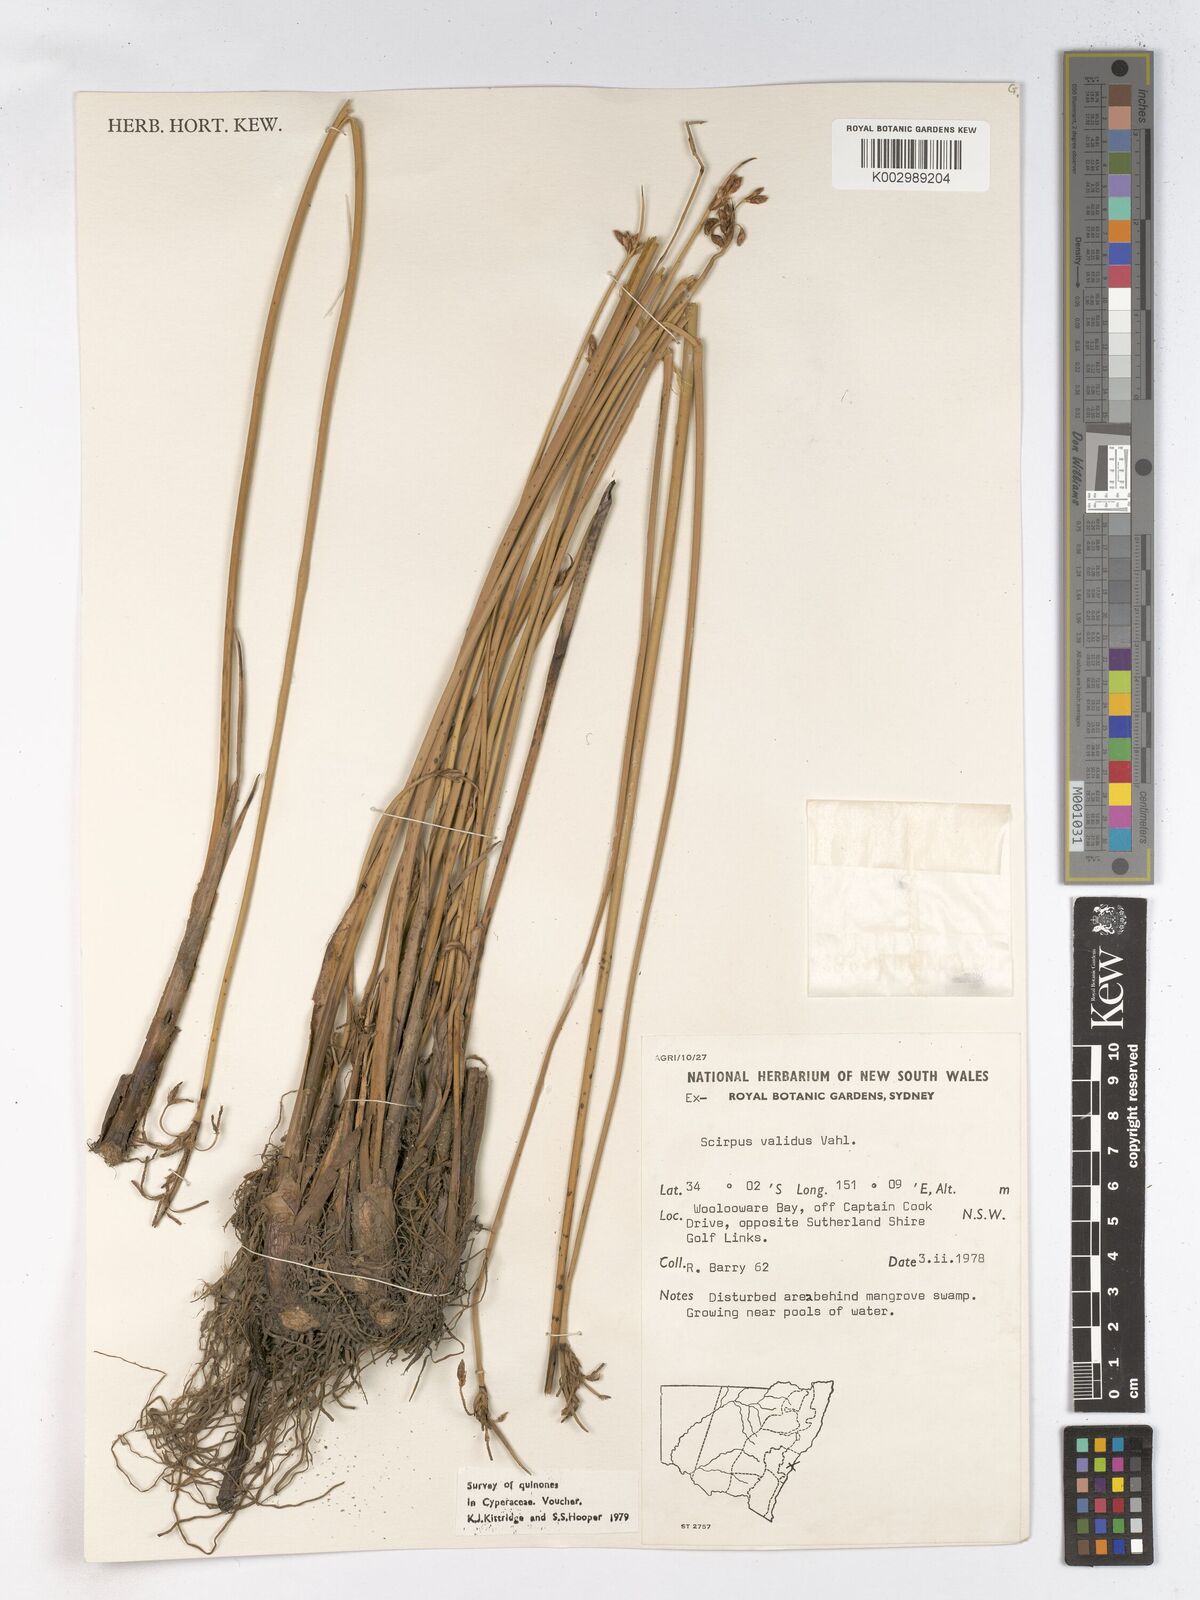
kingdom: Plantae
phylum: Tracheophyta
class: Liliopsida
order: Poales
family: Cyperaceae
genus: Schoenoplectus
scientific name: Schoenoplectus lacustris
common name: Common club-rush
